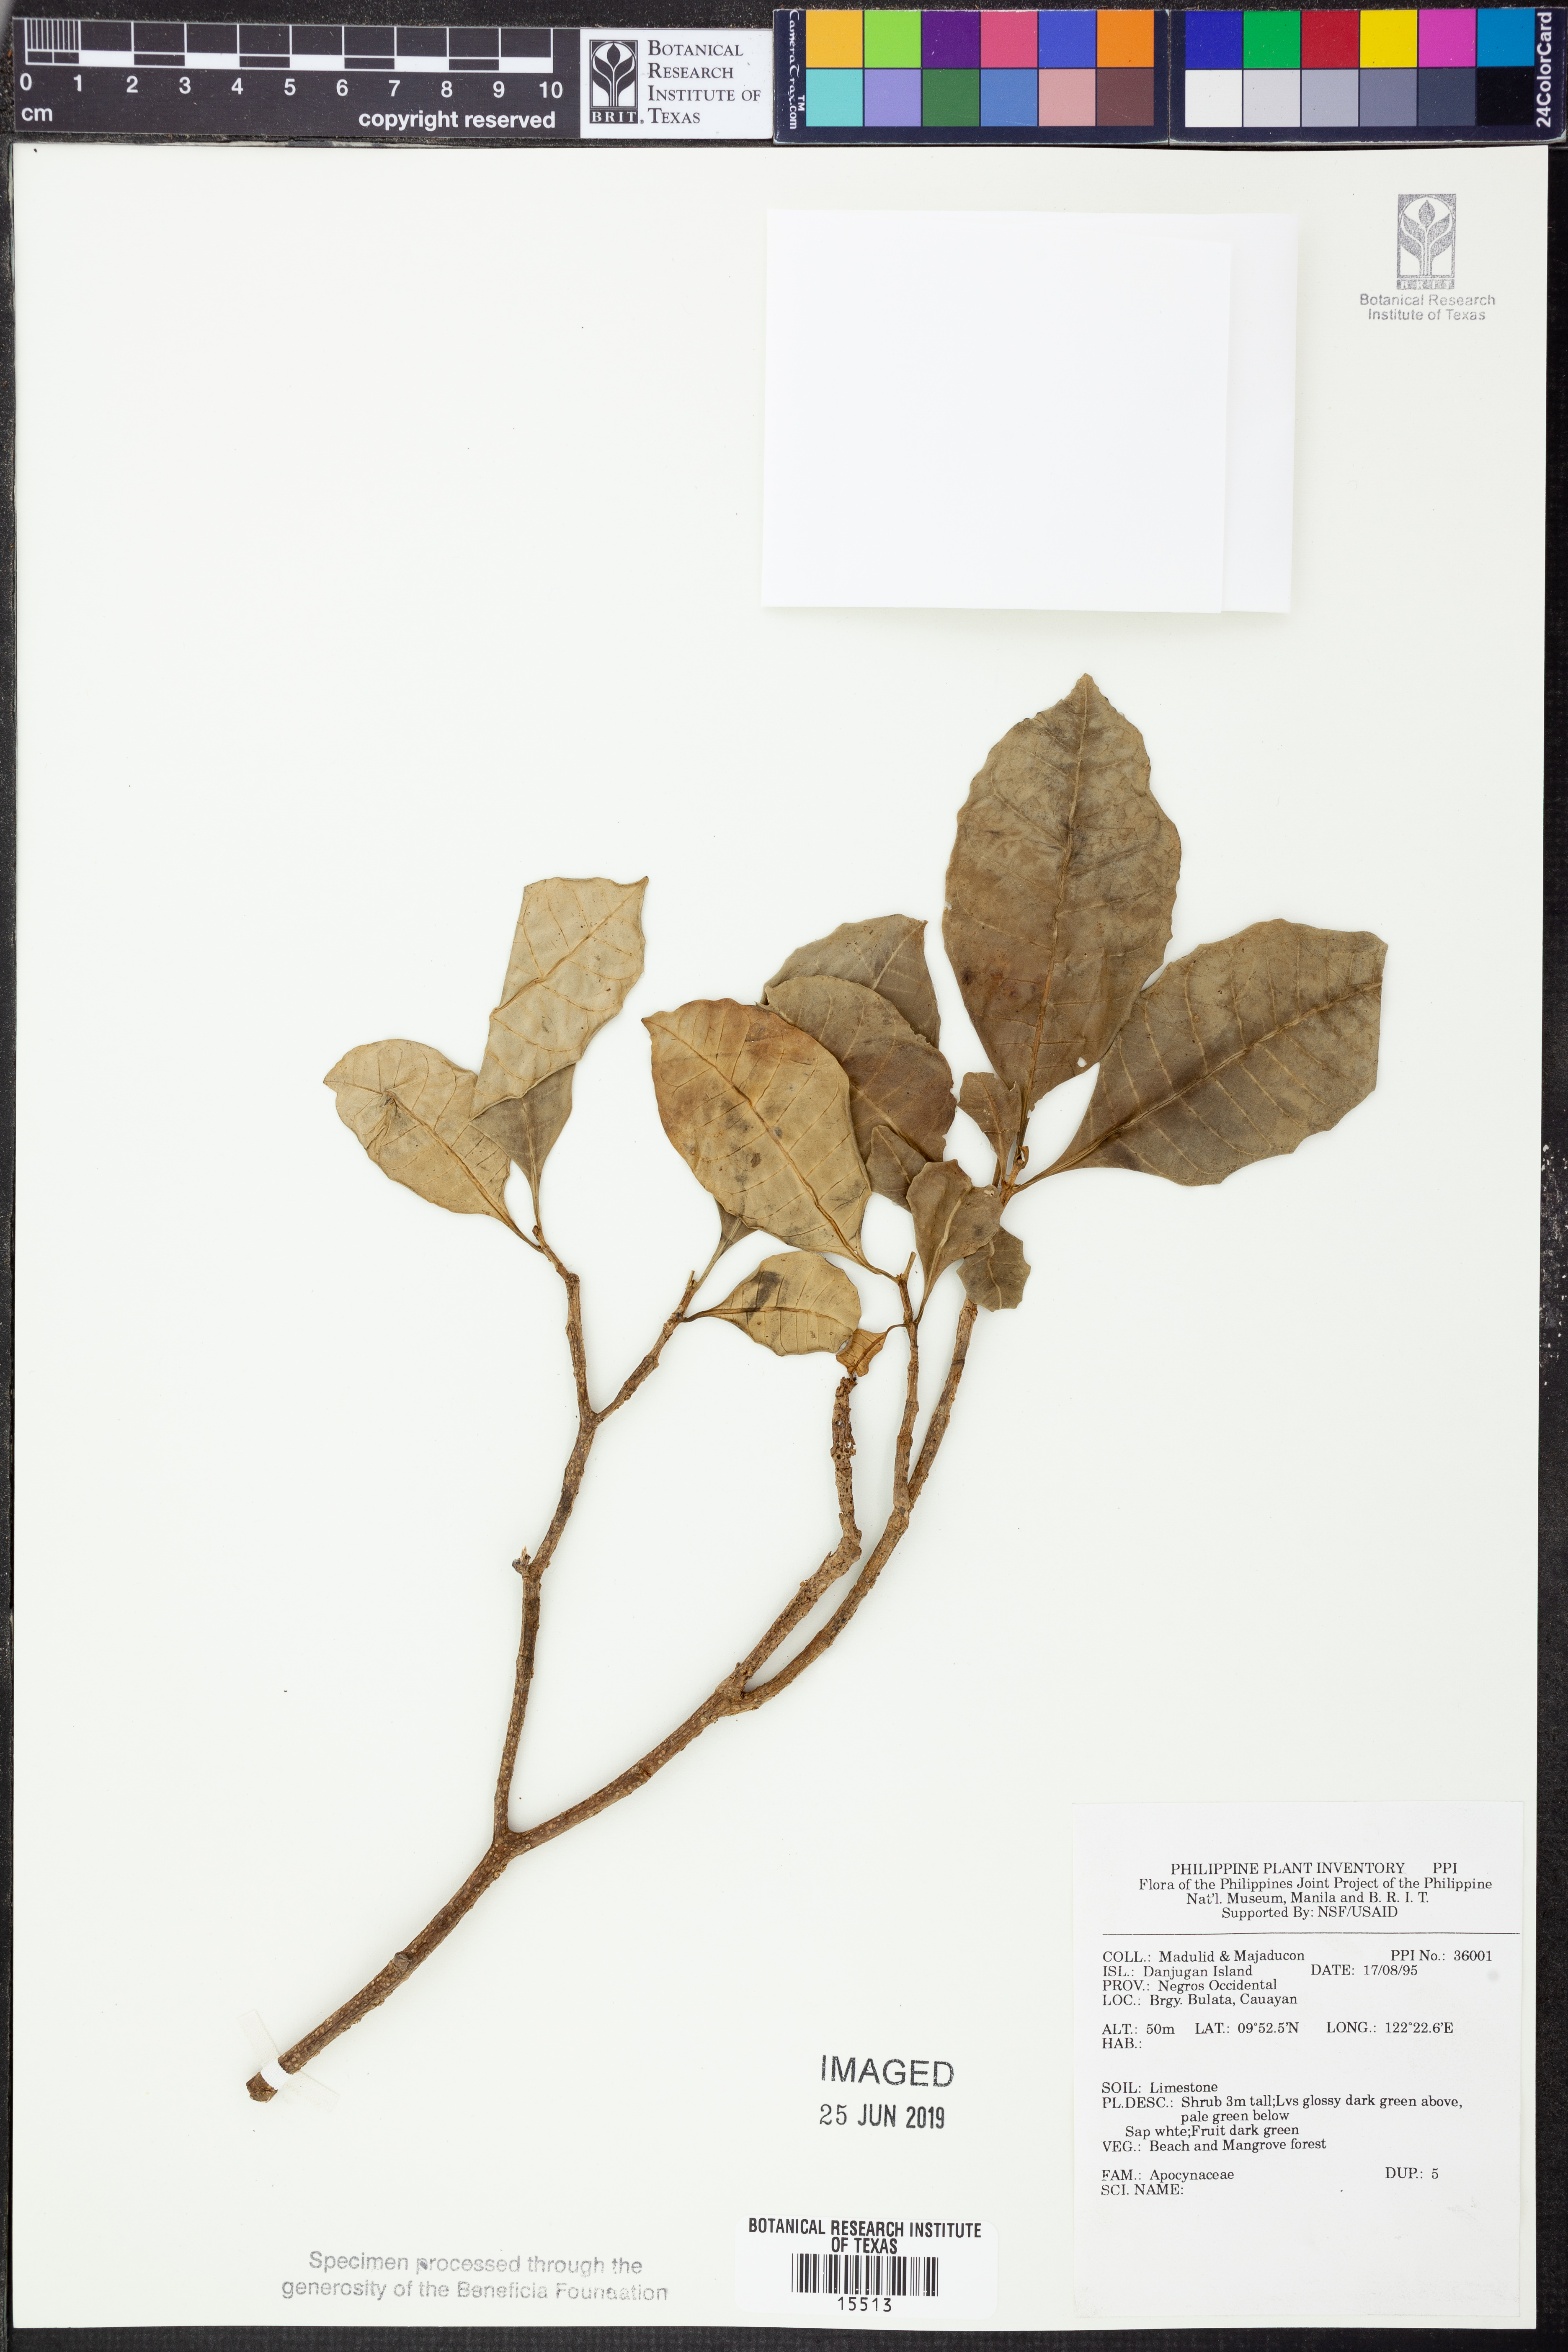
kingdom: Plantae
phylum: Tracheophyta
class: Magnoliopsida
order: Gentianales
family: Apocynaceae
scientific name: Apocynaceae
